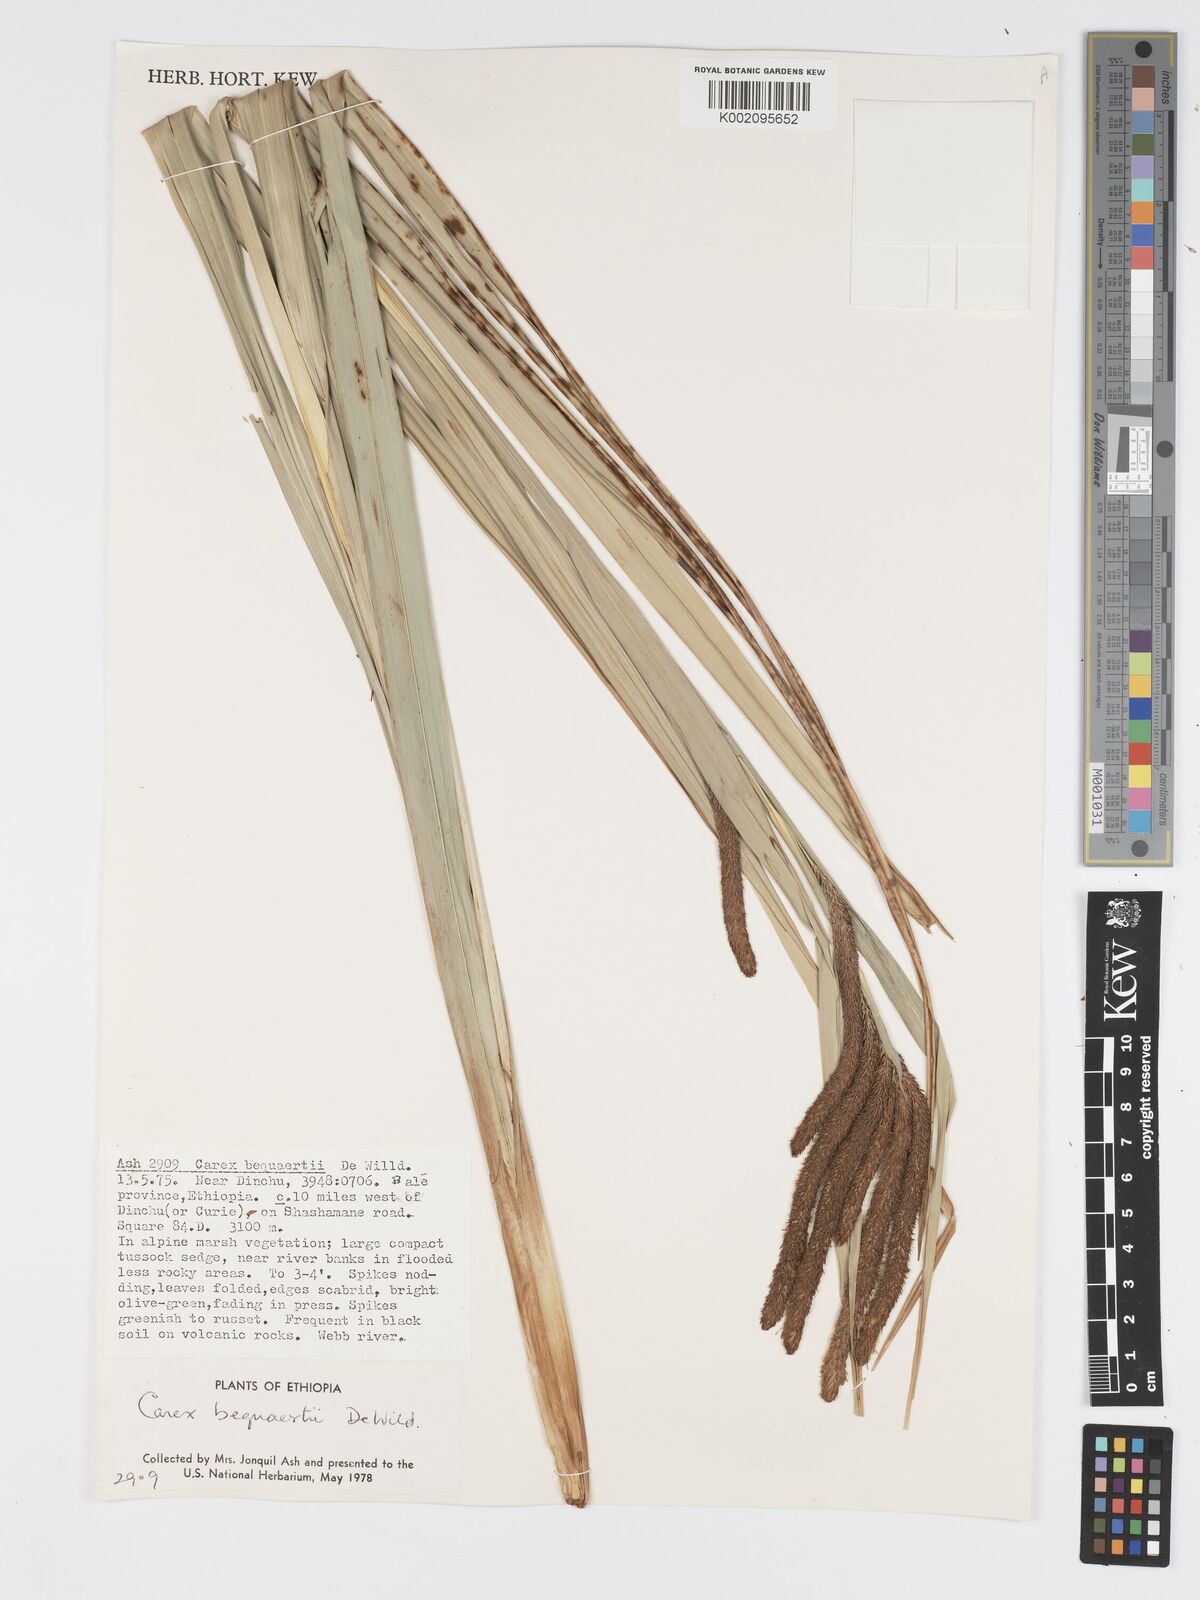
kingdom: Plantae
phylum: Tracheophyta
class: Liliopsida
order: Poales
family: Cyperaceae
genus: Carex
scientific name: Carex bequaertii
